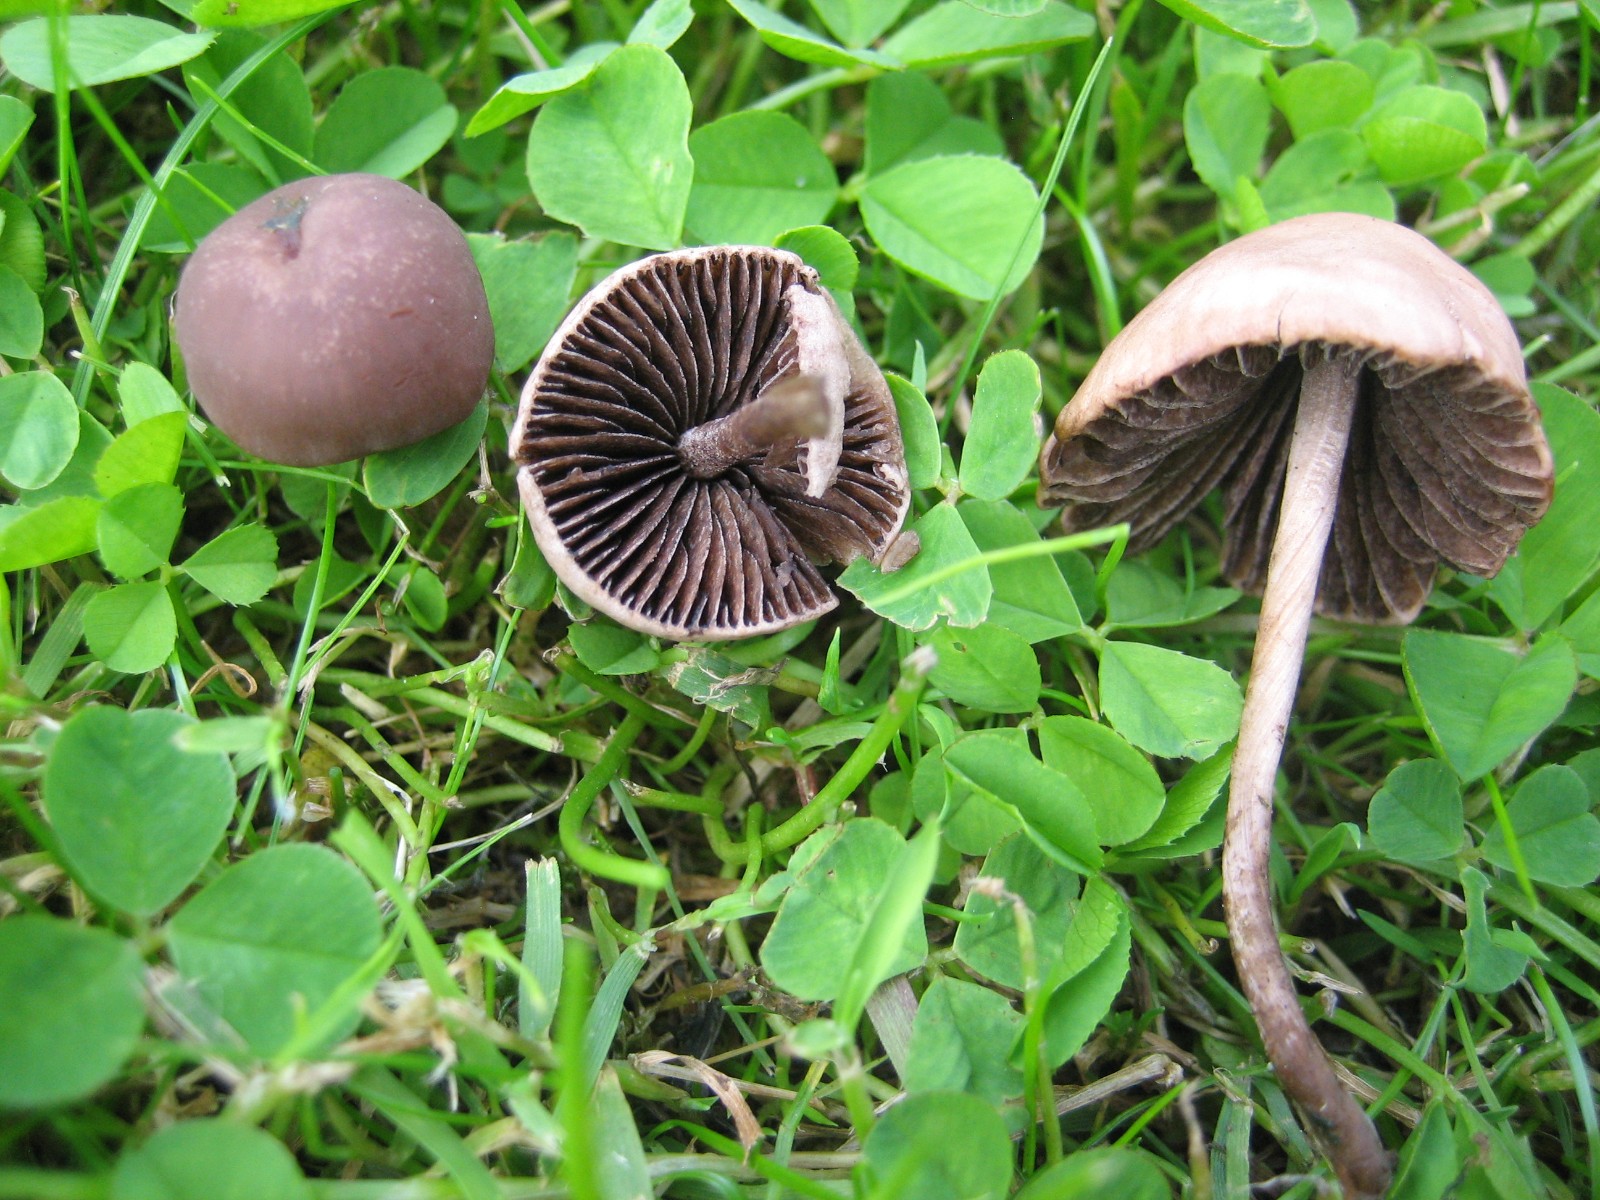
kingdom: Fungi
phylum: Basidiomycota
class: Agaricomycetes
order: Agaricales
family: Bolbitiaceae
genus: Panaeolina
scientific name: Panaeolina foenisecii
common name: høslætsvamp
